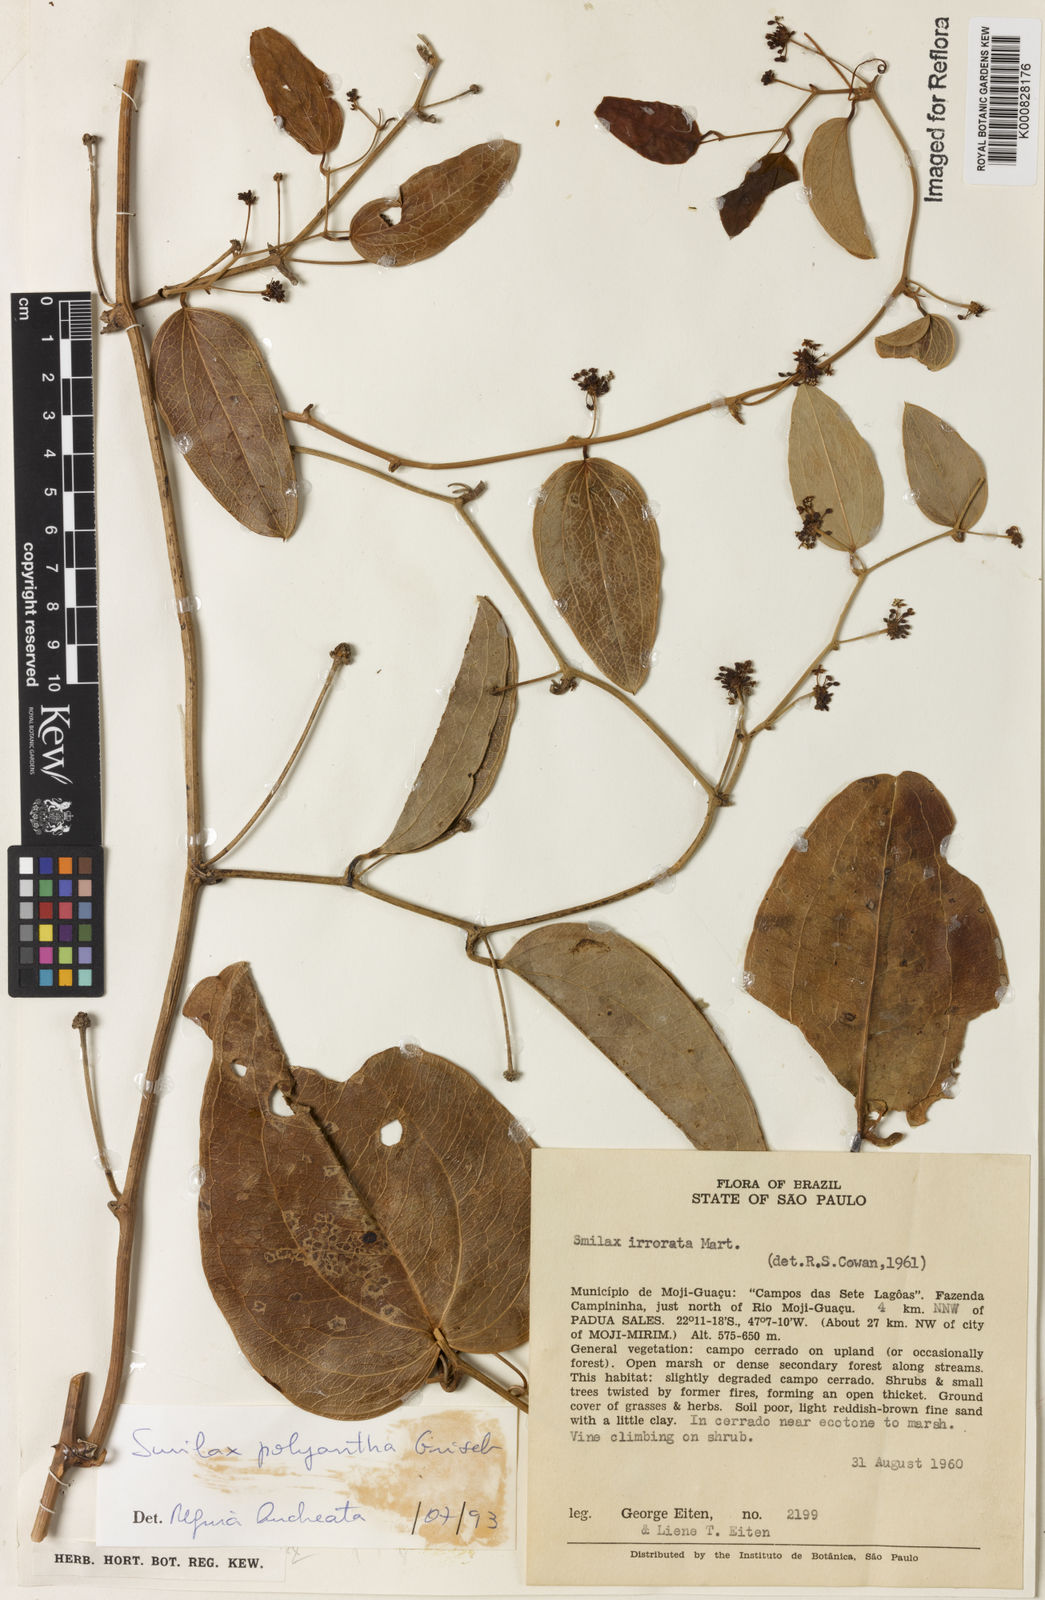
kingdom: Plantae
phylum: Tracheophyta
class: Liliopsida
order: Liliales
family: Smilacaceae
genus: Smilax
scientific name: Smilax polyantha
